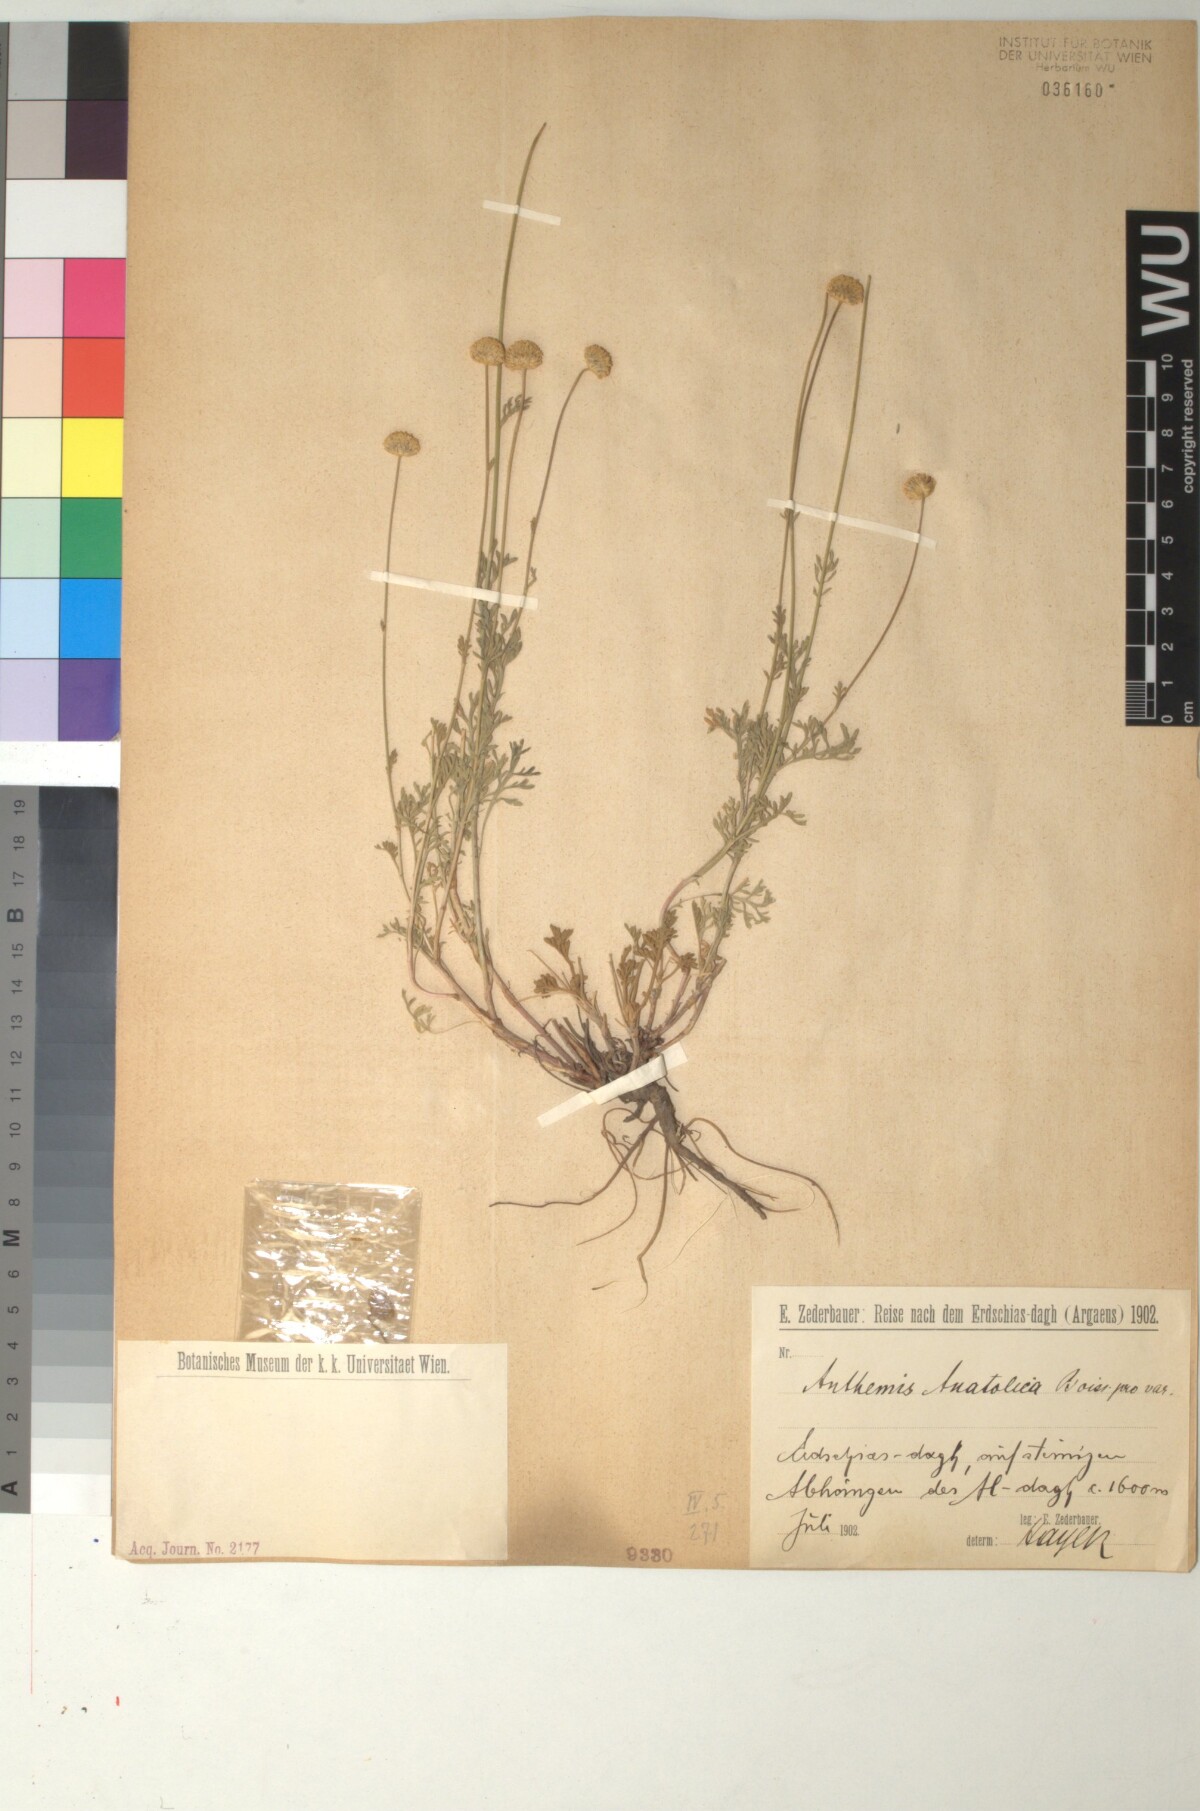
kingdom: Plantae
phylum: Tracheophyta
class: Magnoliopsida
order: Asterales
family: Asteraceae
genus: Anthemis
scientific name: Anthemis cretica
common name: Mountain dog-daisy
